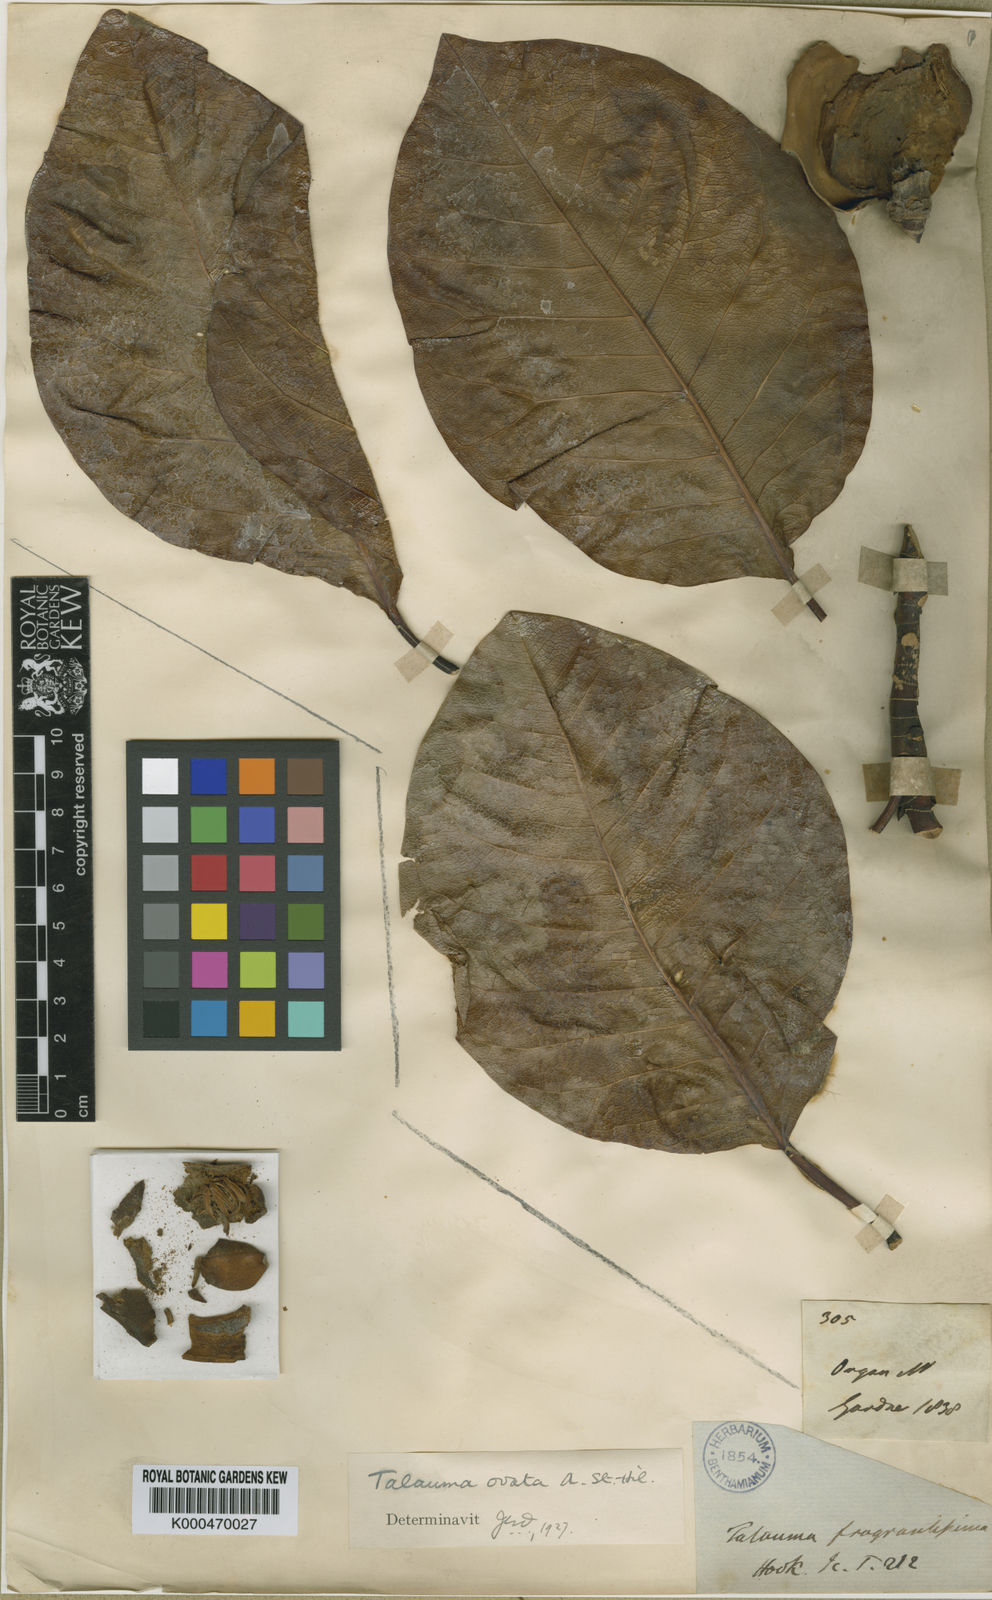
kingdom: Plantae
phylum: Tracheophyta
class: Magnoliopsida
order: Magnoliales
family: Magnoliaceae
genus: Magnolia
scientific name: Magnolia ovata
